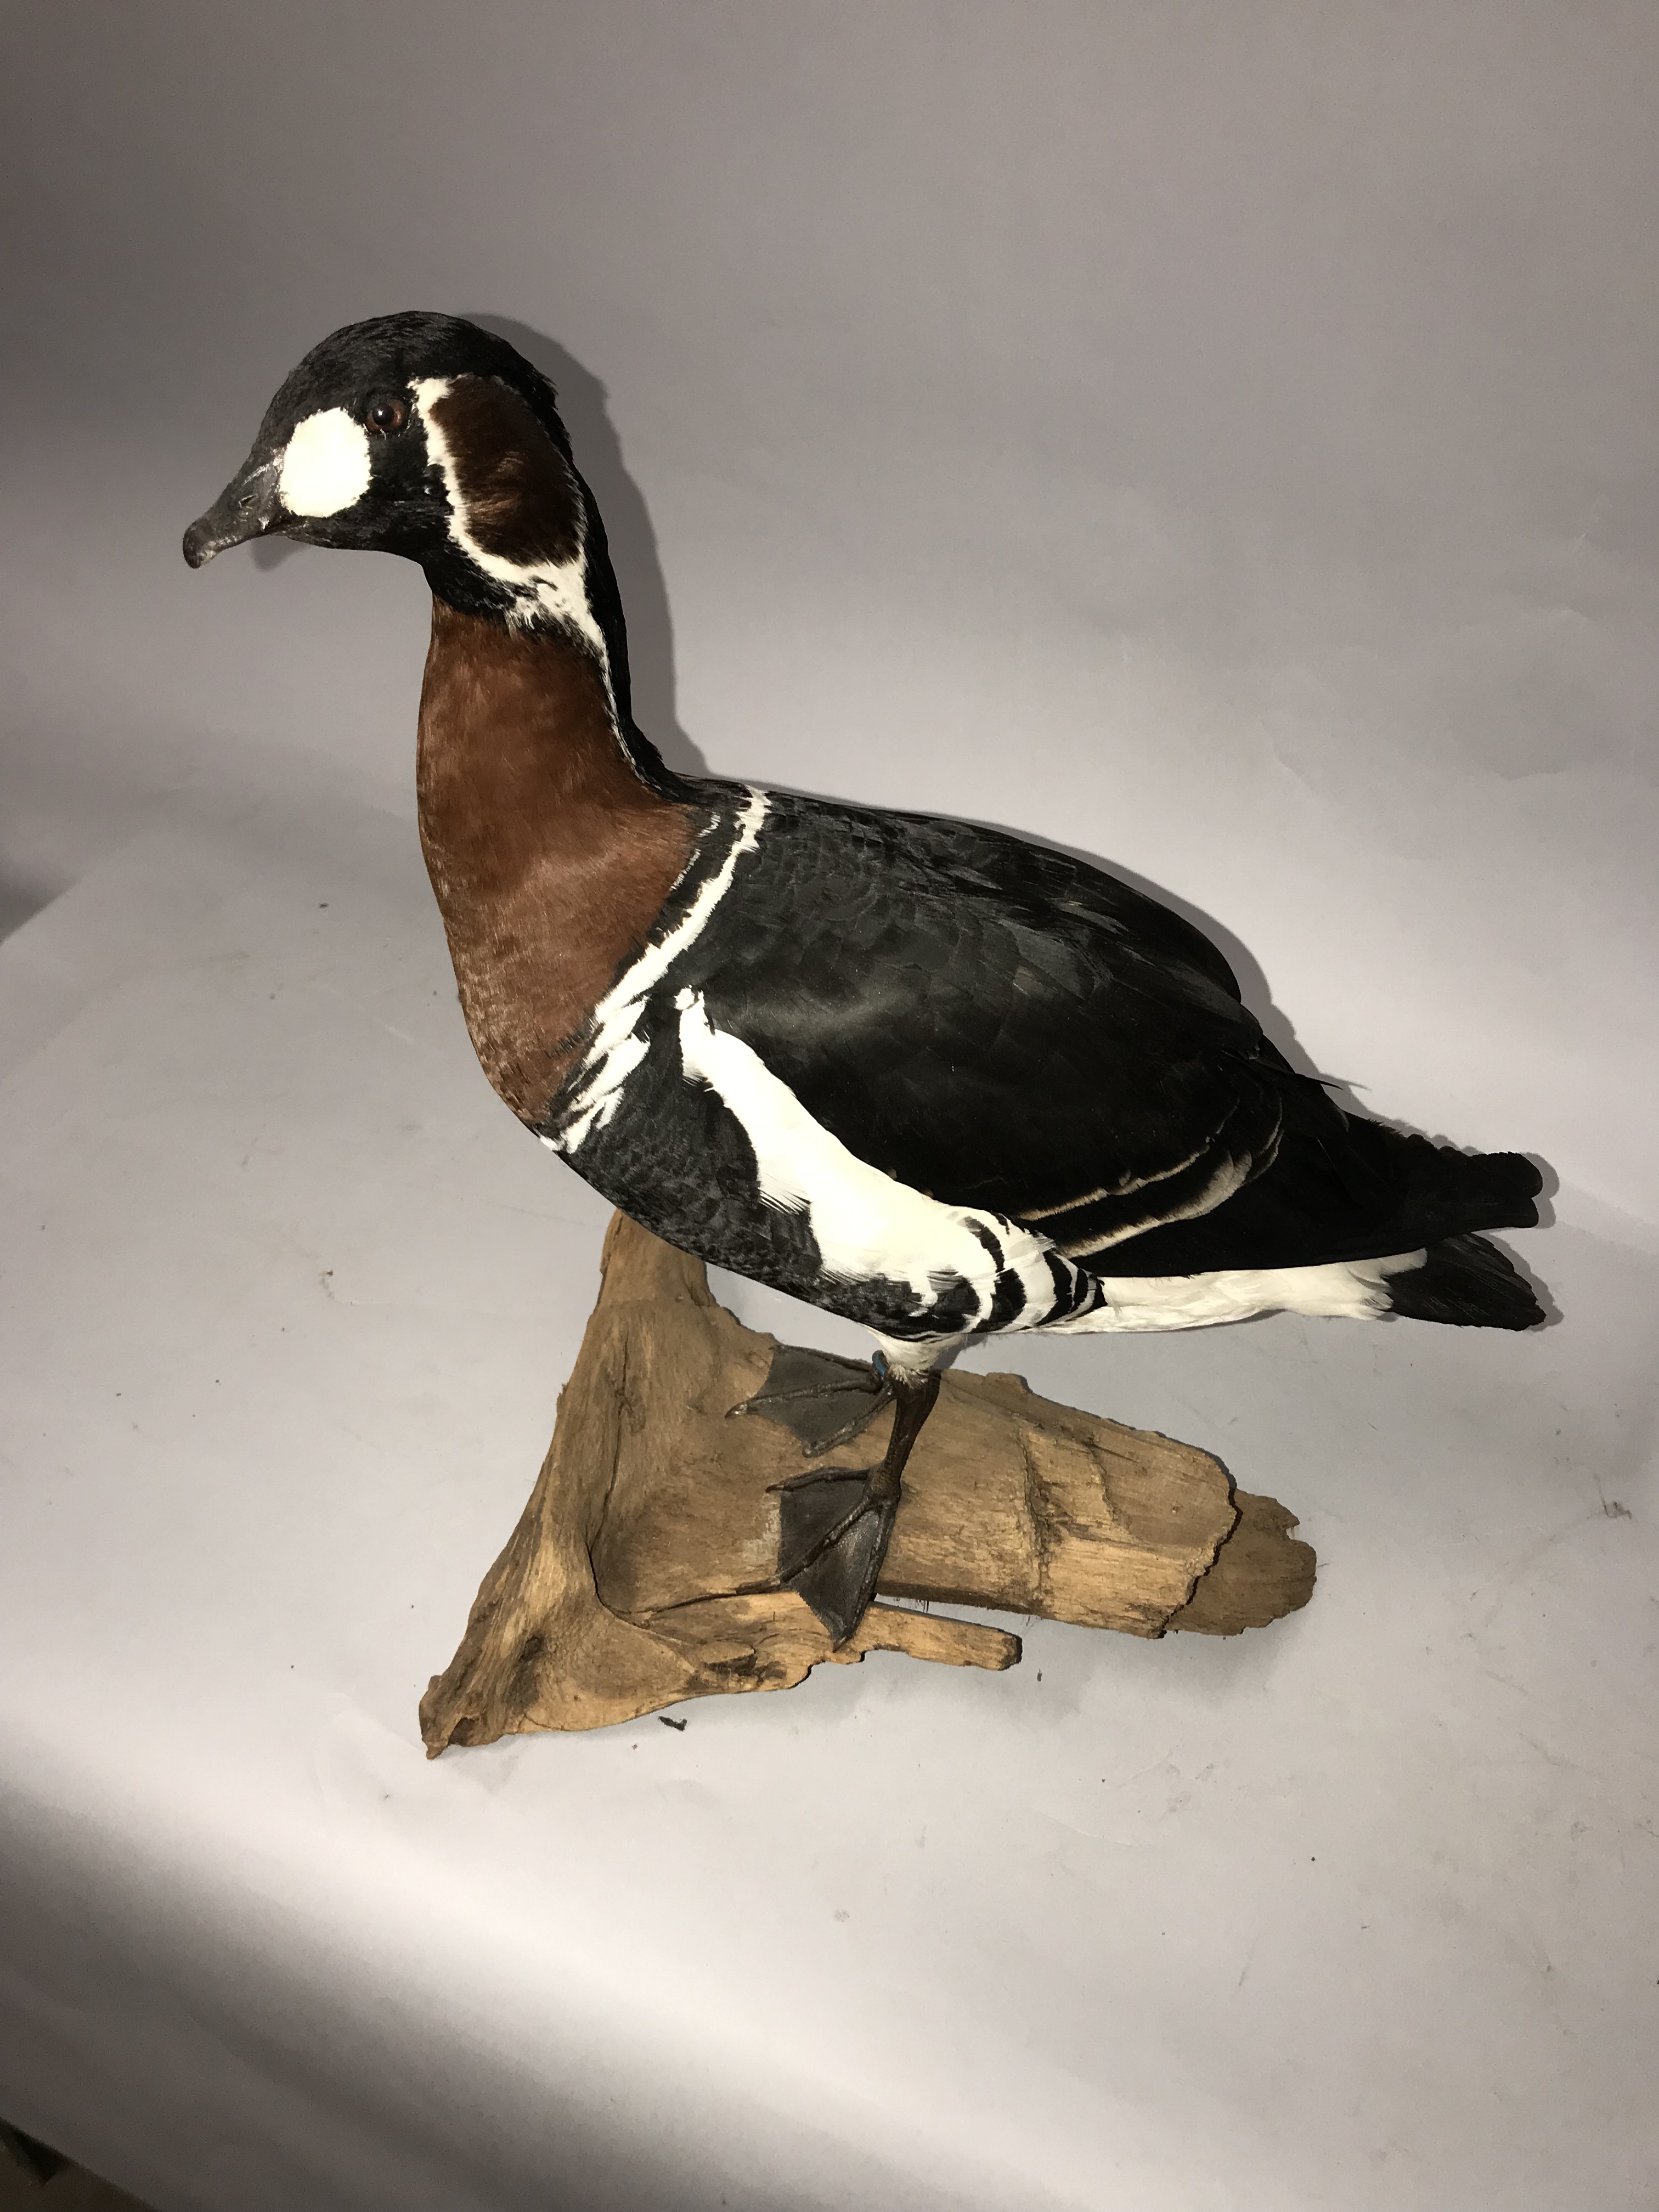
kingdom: Animalia
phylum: Chordata
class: Aves
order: Anseriformes
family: Anatidae
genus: Branta
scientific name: Branta ruficollis
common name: Red-breasted goose
